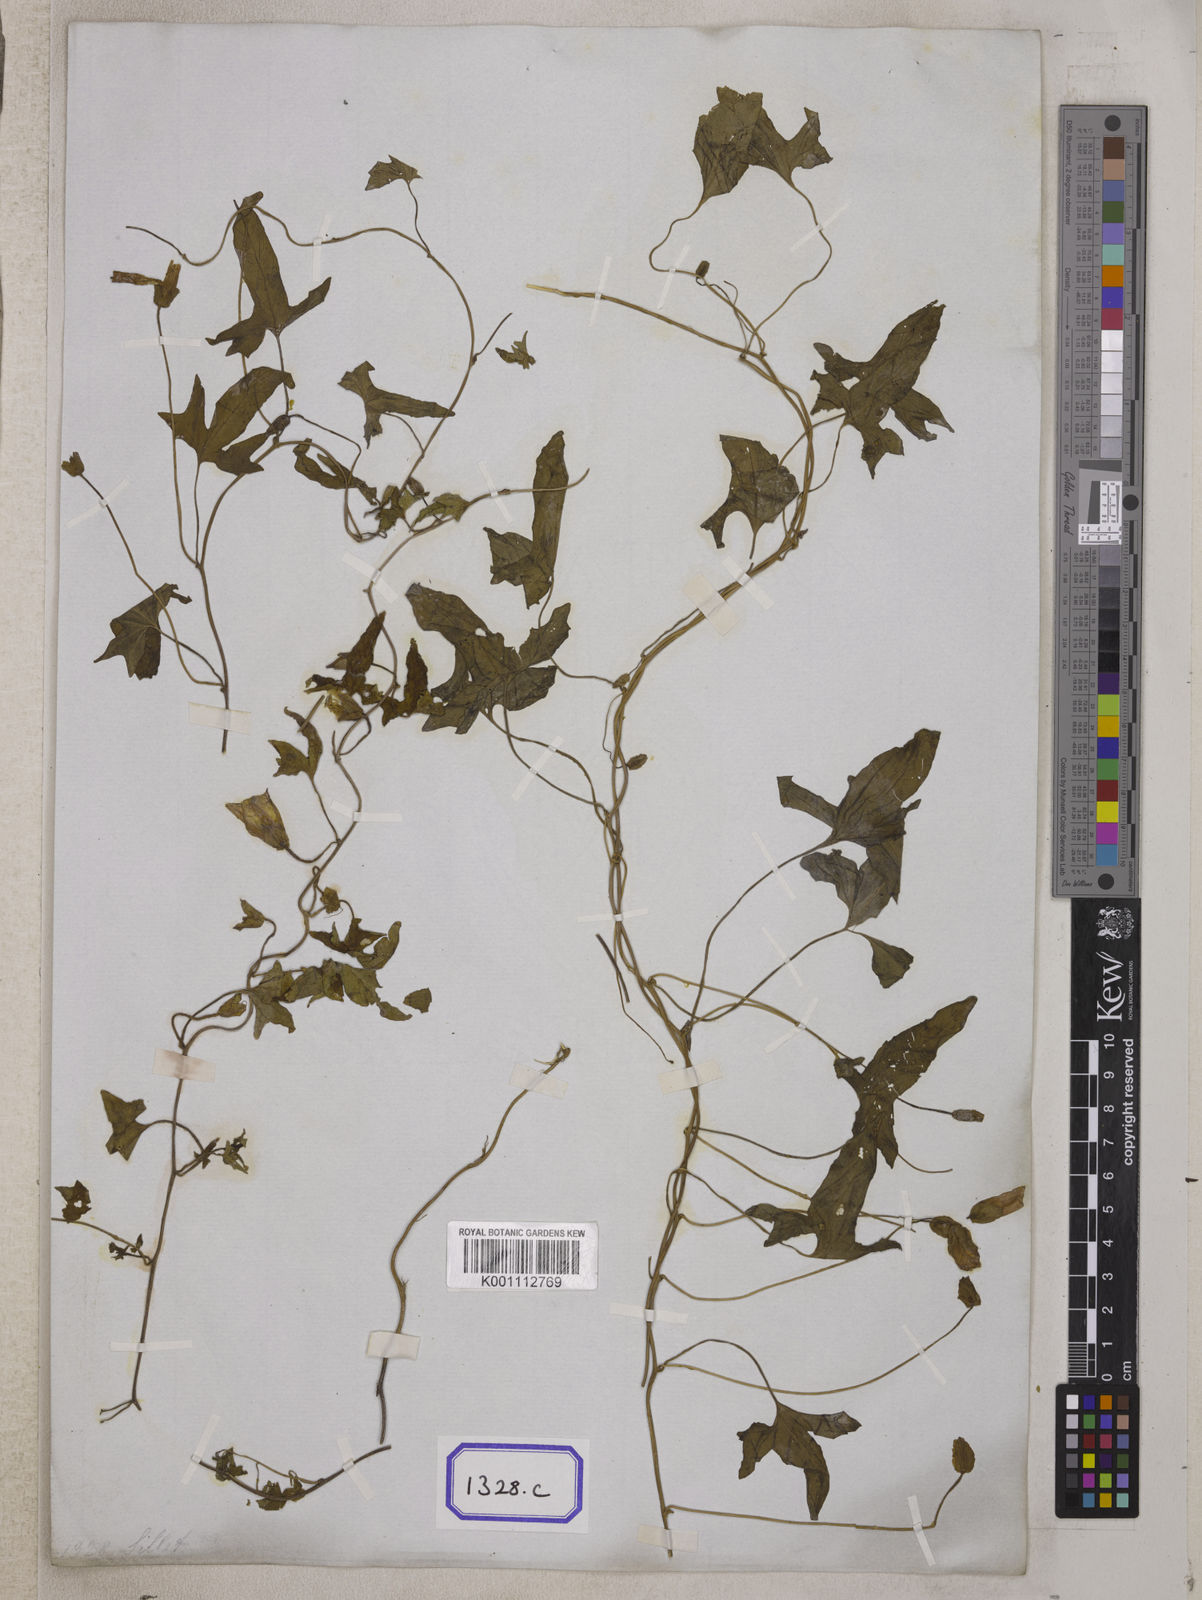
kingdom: Plantae
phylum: Tracheophyta
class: Magnoliopsida
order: Solanales
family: Convolvulaceae
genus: Calystegia
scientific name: Calystegia hederacea
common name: Japanese false bindweed
